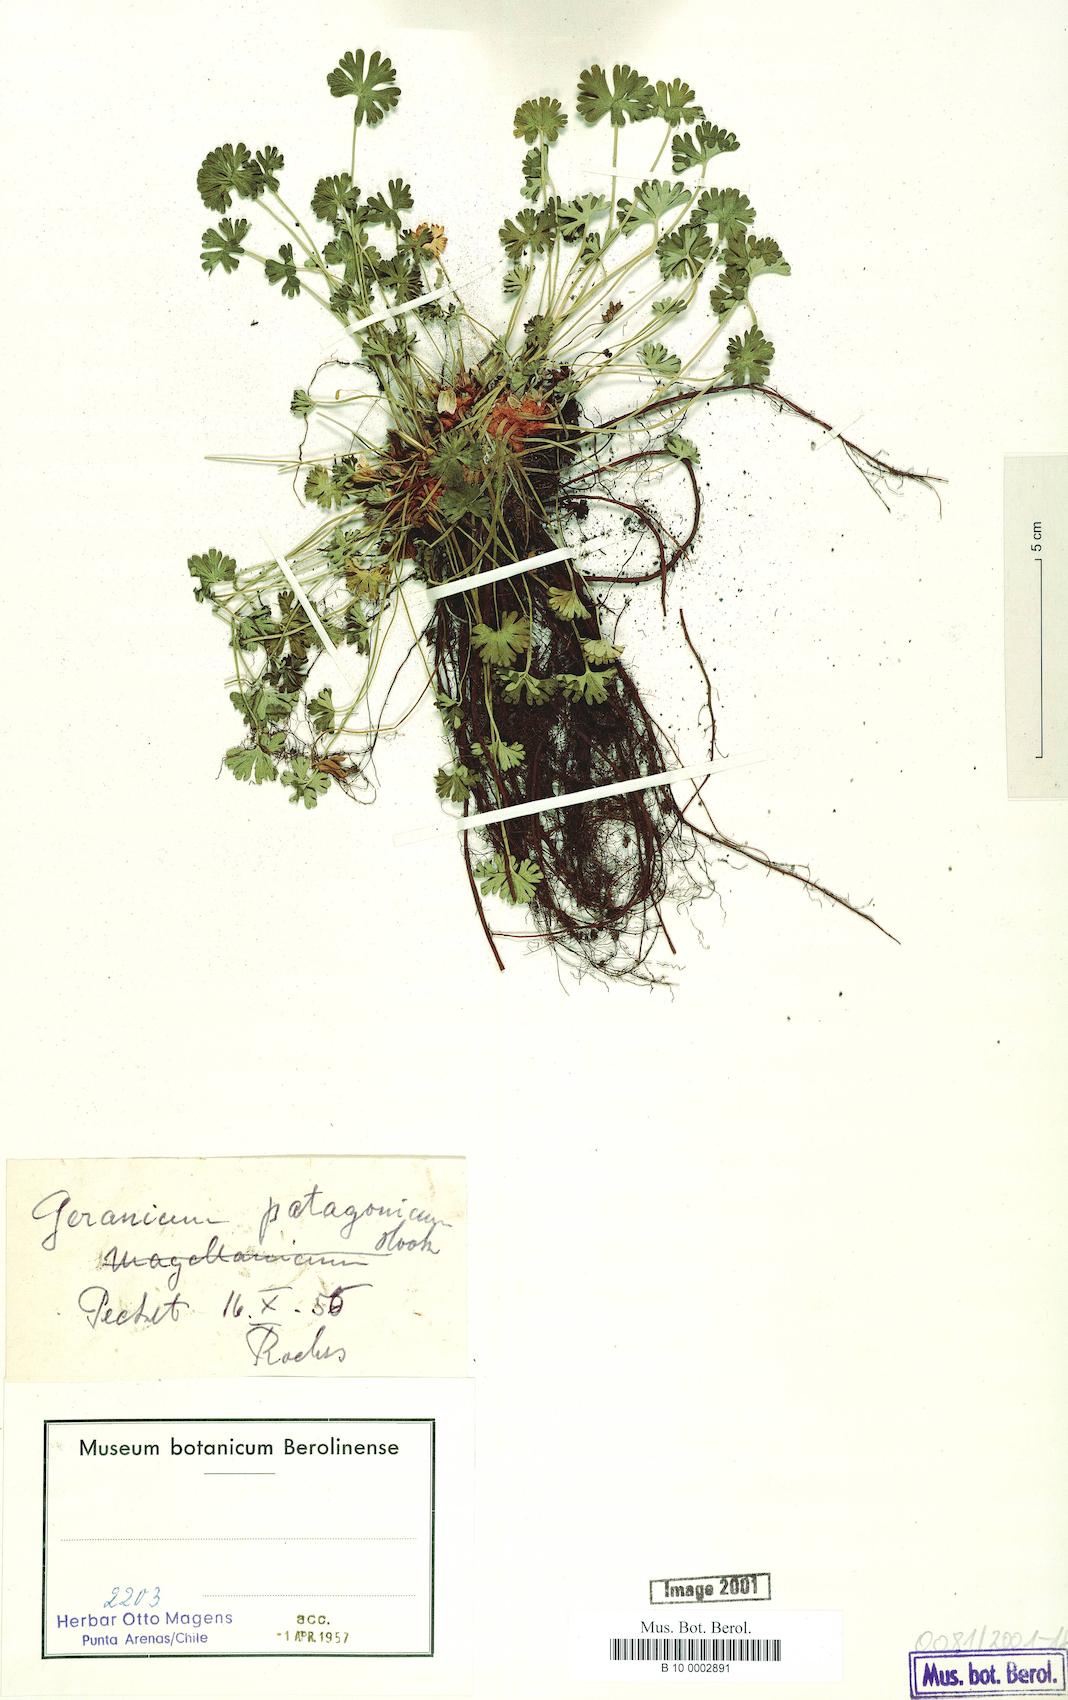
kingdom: Plantae
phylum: Tracheophyta
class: Magnoliopsida
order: Geraniales
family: Geraniaceae
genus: Geranium
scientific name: Geranium berteroanum
